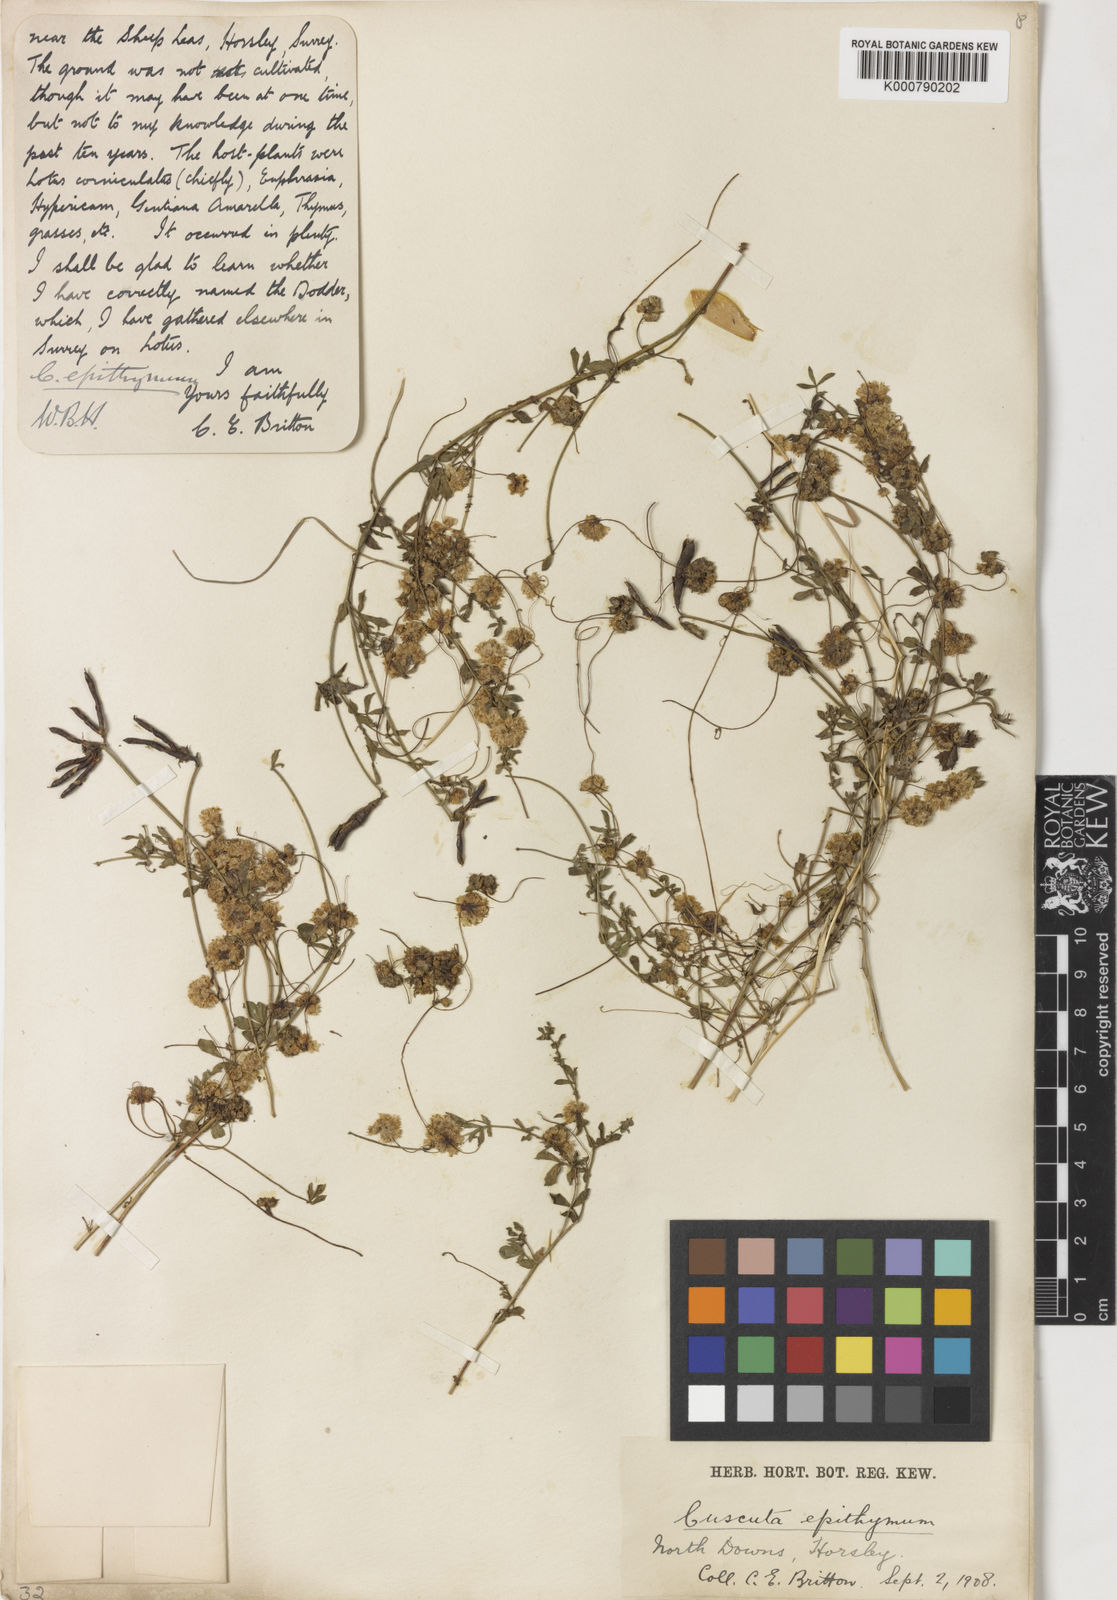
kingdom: Plantae
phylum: Tracheophyta
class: Magnoliopsida
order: Solanales
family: Convolvulaceae
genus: Cuscuta
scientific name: Cuscuta epithymum
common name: Clover dodder
